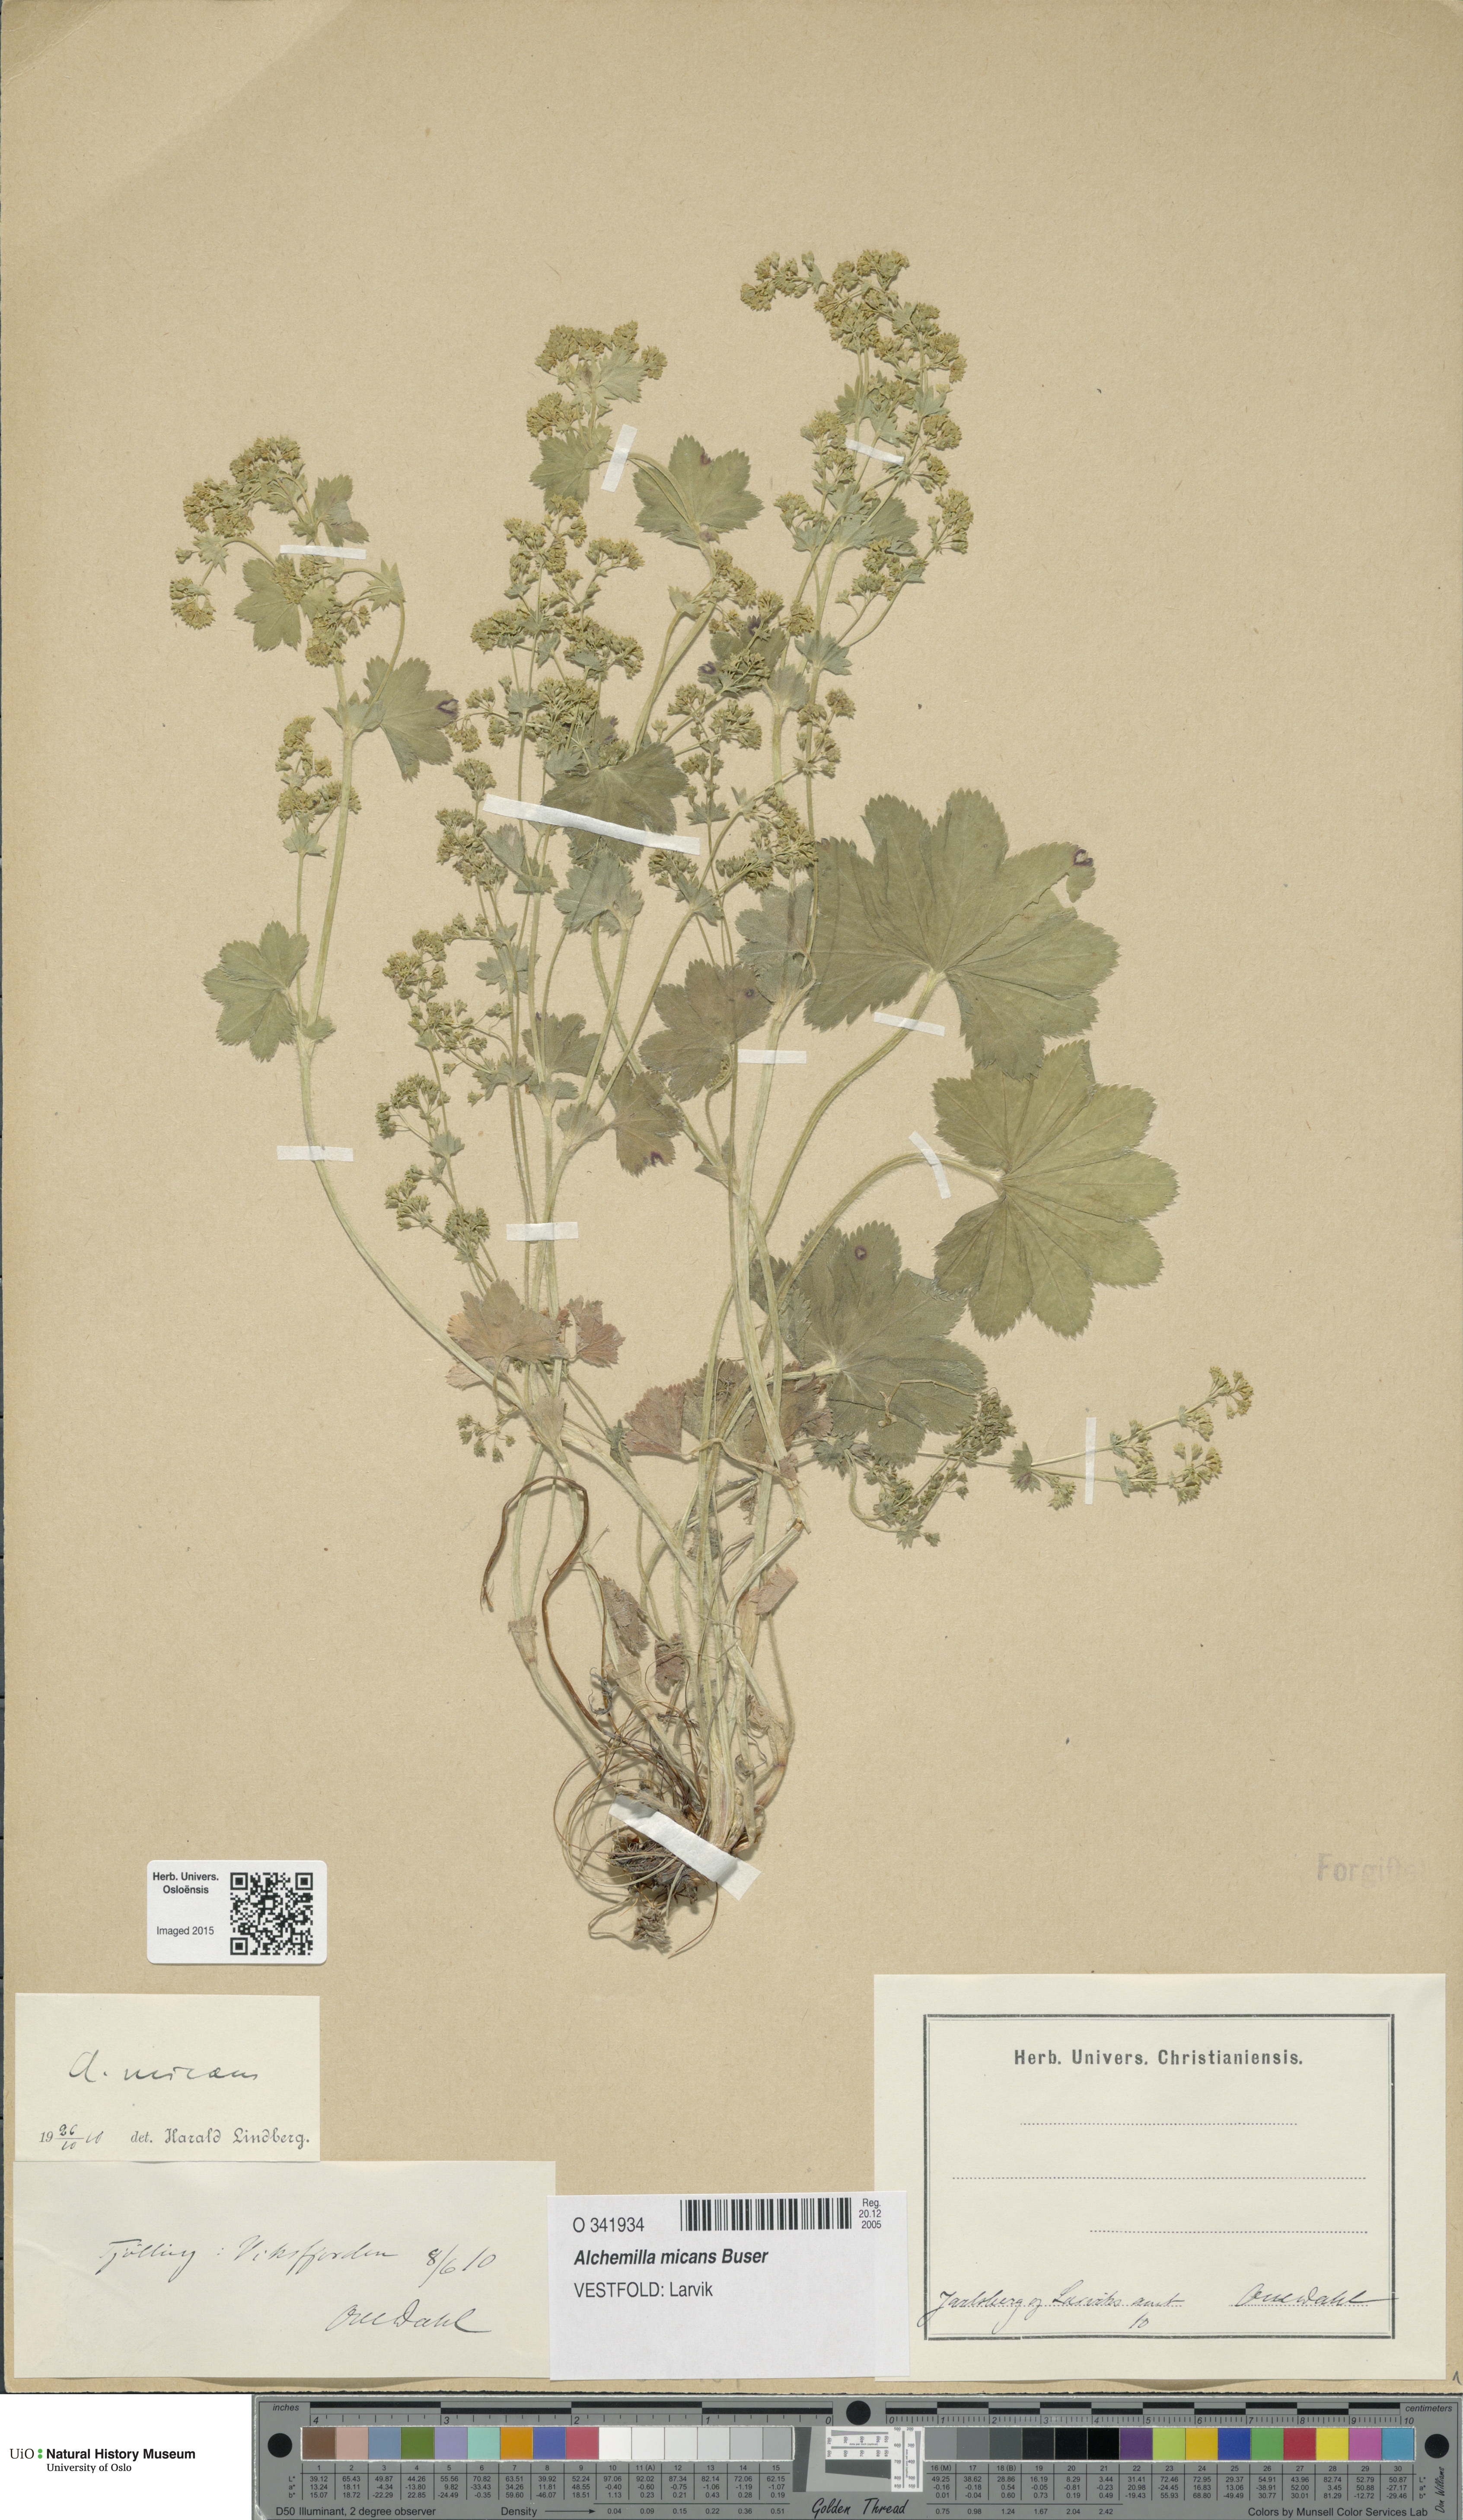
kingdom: Plantae
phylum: Tracheophyta
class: Magnoliopsida
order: Rosales
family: Rosaceae
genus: Alchemilla
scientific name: Alchemilla micans
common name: Gleaming lady's mantle
